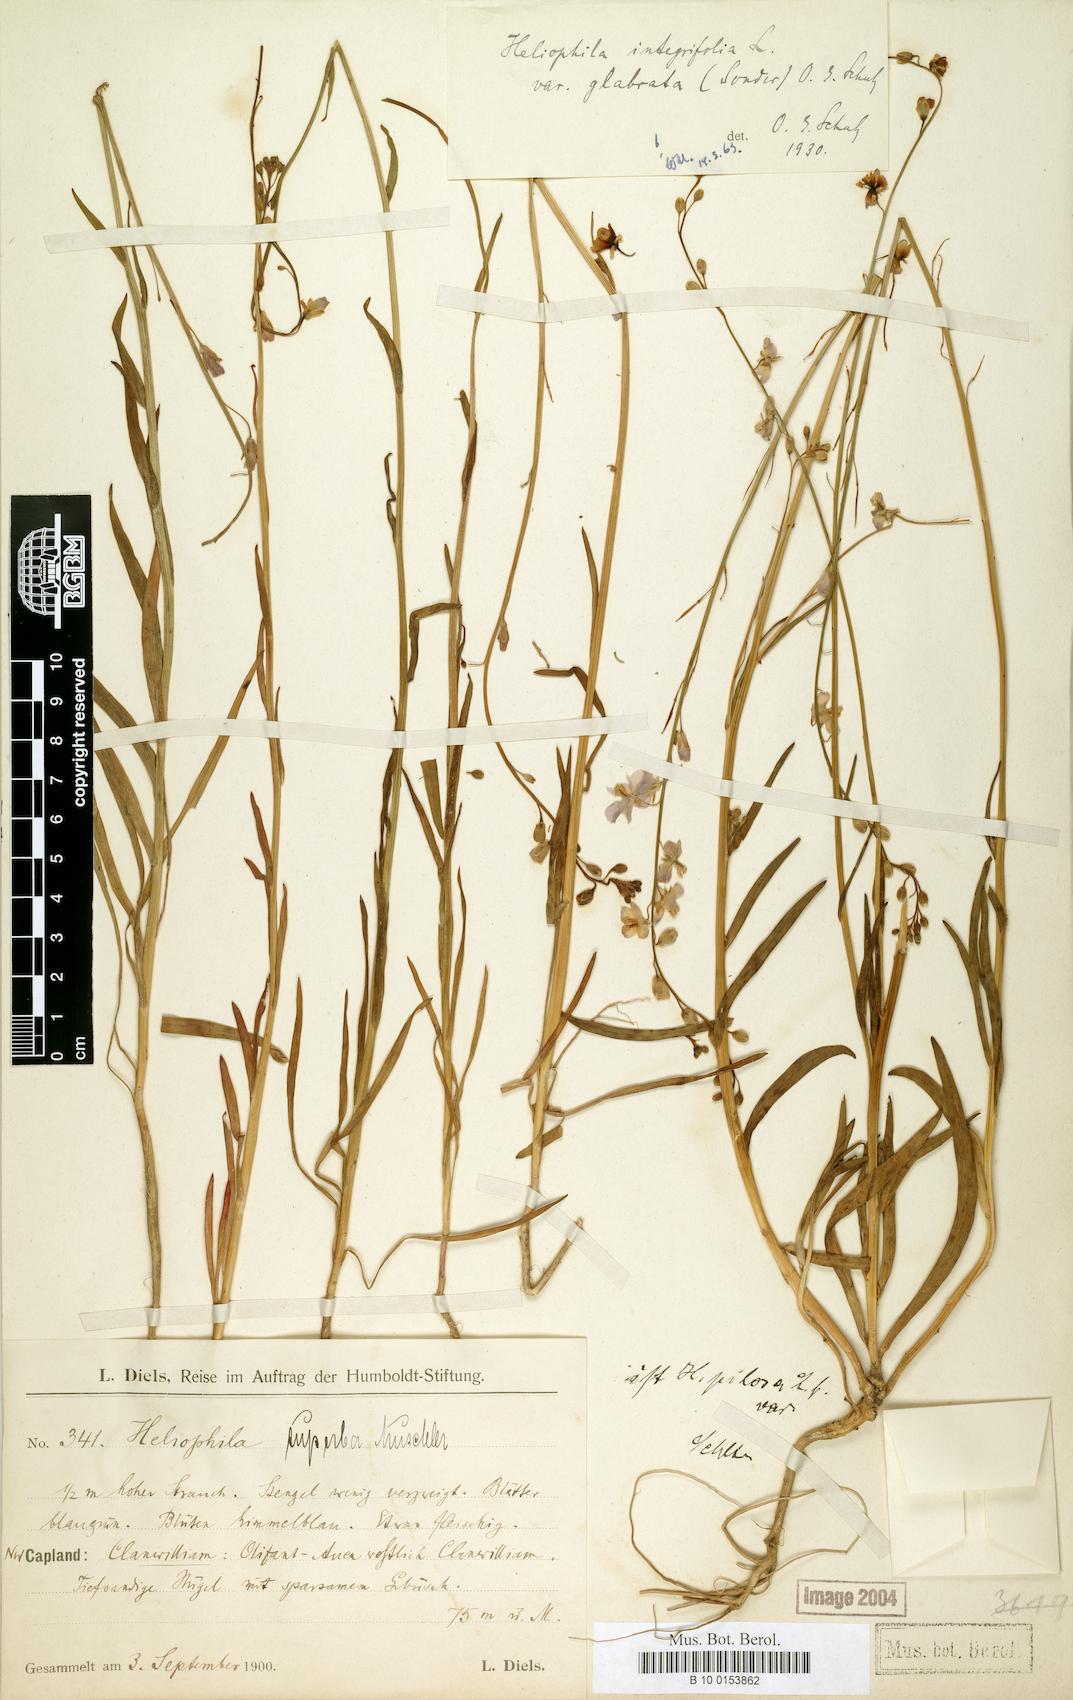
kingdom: Plantae
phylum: Tracheophyta
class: Magnoliopsida
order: Brassicales
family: Brassicaceae
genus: Heliophila
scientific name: Heliophila africana
